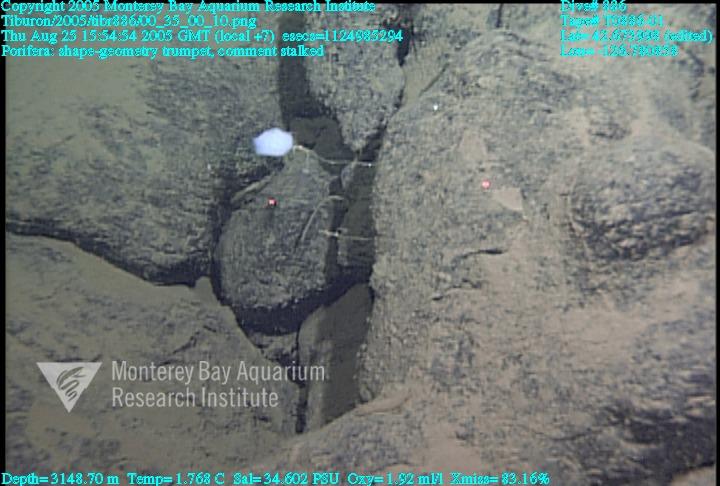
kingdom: Animalia
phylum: Porifera
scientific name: Porifera
